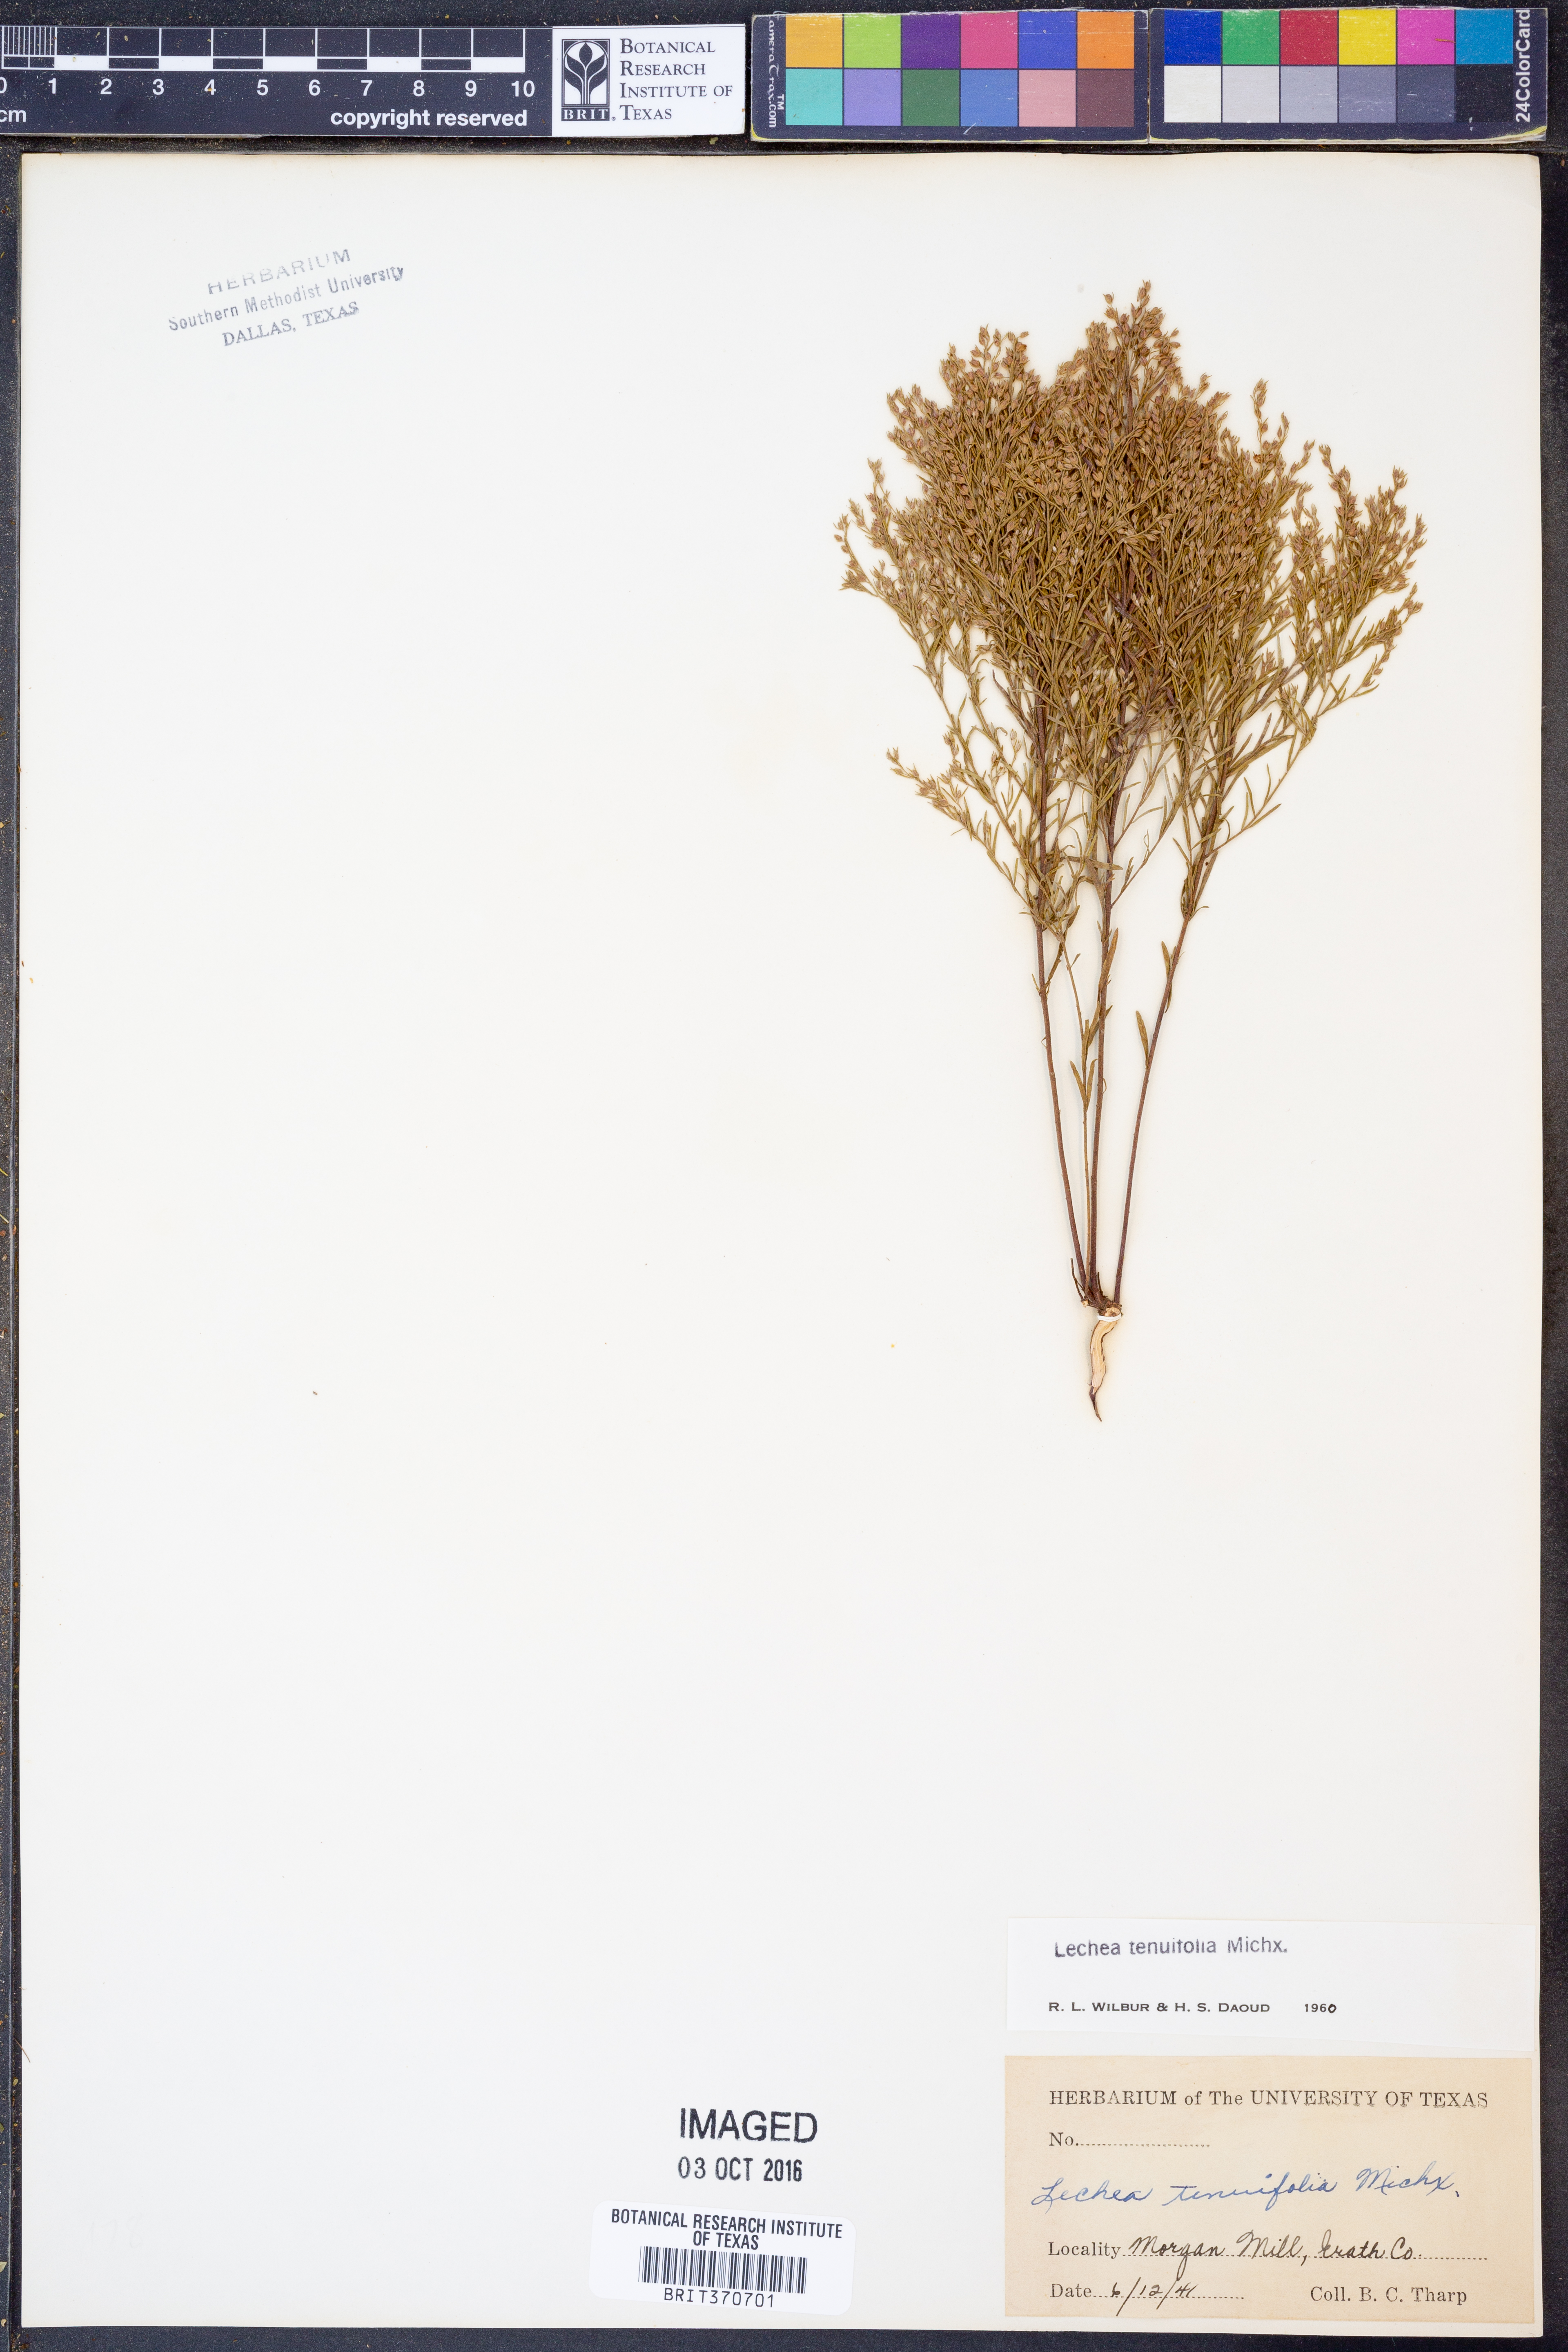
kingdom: Plantae
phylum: Tracheophyta
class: Magnoliopsida
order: Malvales
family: Cistaceae
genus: Lechea
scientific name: Lechea tenuifolia
